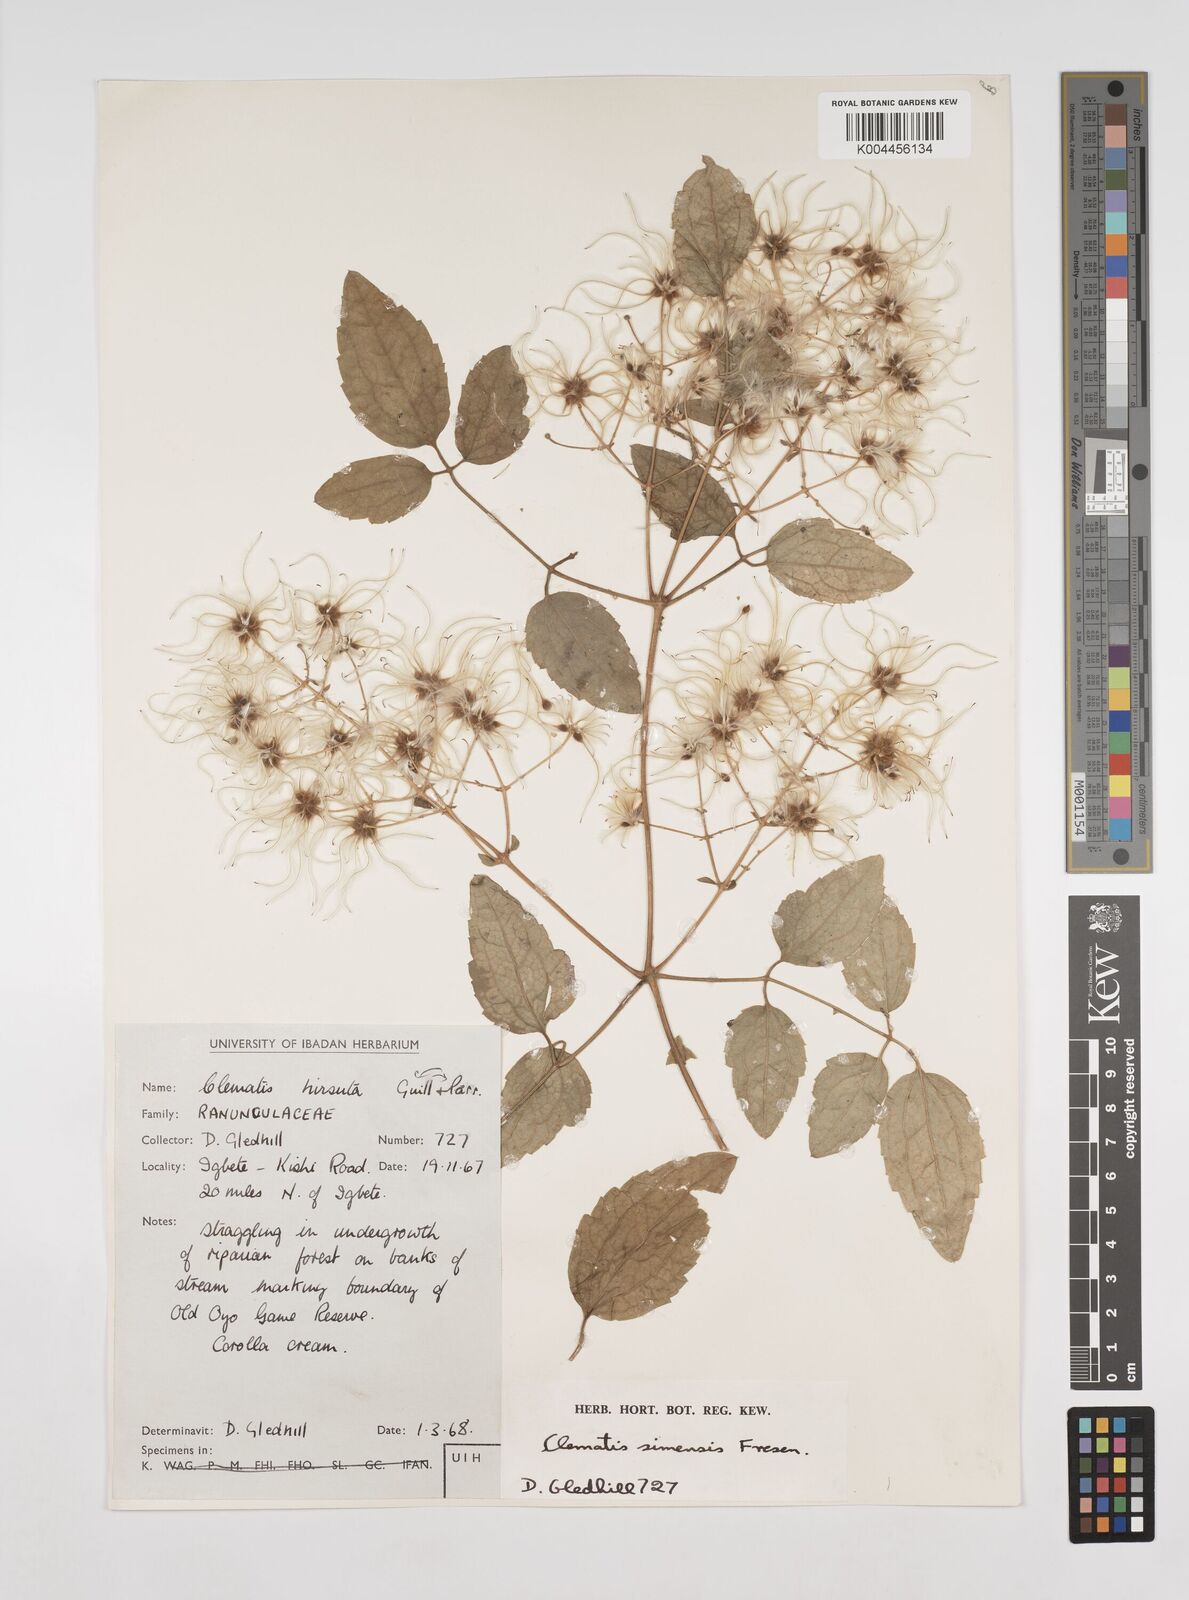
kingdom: Plantae
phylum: Tracheophyta
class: Magnoliopsida
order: Ranunculales
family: Ranunculaceae
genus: Clematis
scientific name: Clematis simensis
